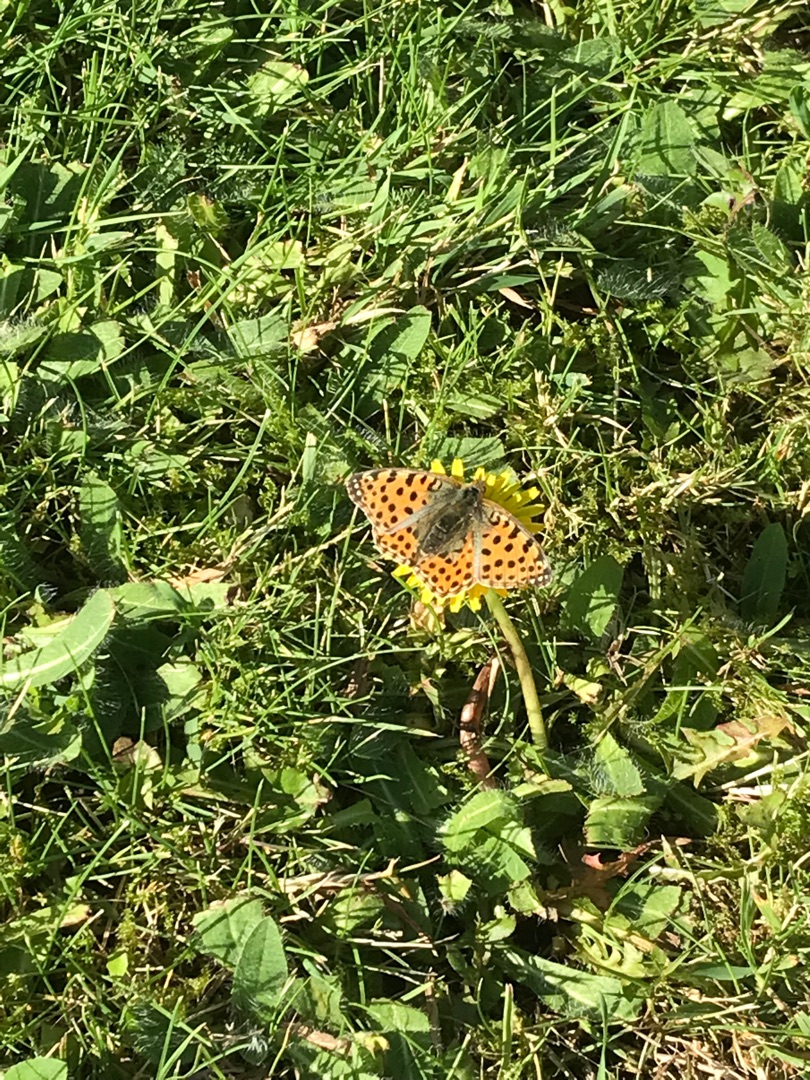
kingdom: Animalia
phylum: Arthropoda
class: Insecta
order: Lepidoptera
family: Nymphalidae
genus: Issoria
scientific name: Issoria lathonia
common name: Storplettet perlemorsommerfugl
